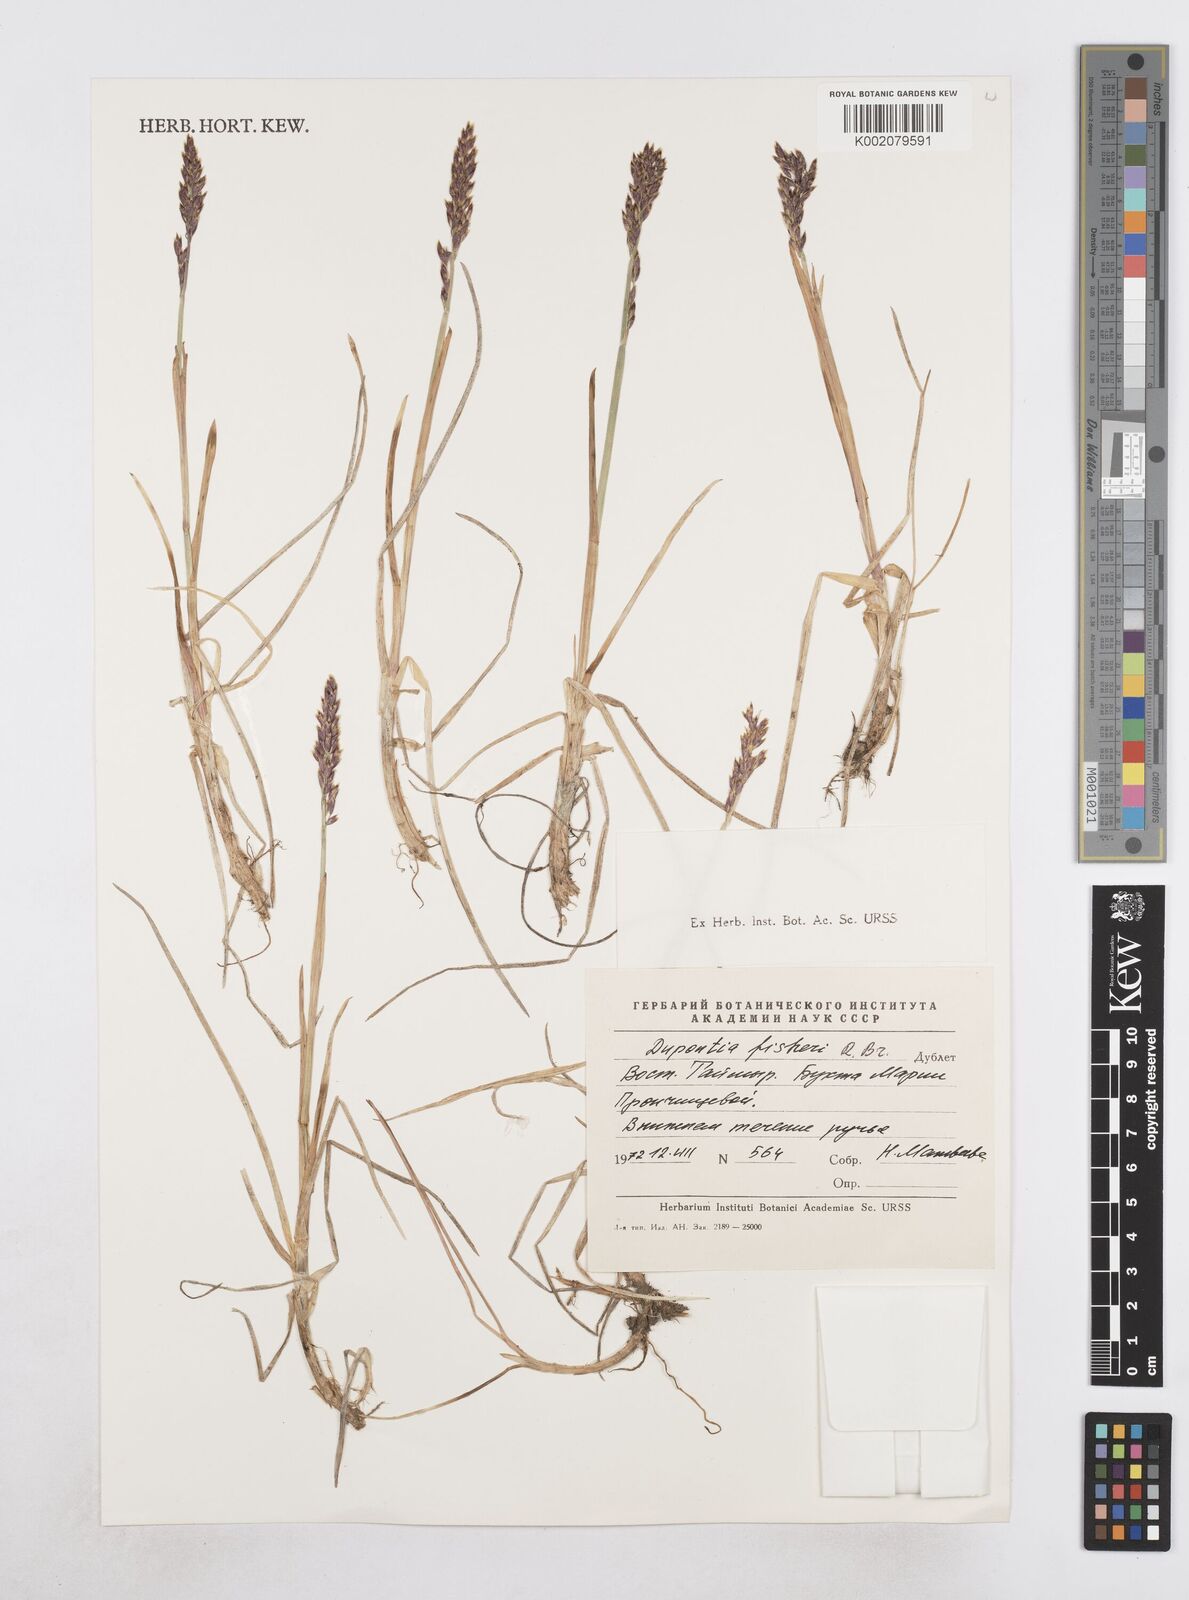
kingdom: Plantae
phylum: Tracheophyta
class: Liliopsida
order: Poales
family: Poaceae
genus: Dupontia
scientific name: Dupontia fisheri
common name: Tundra grass
